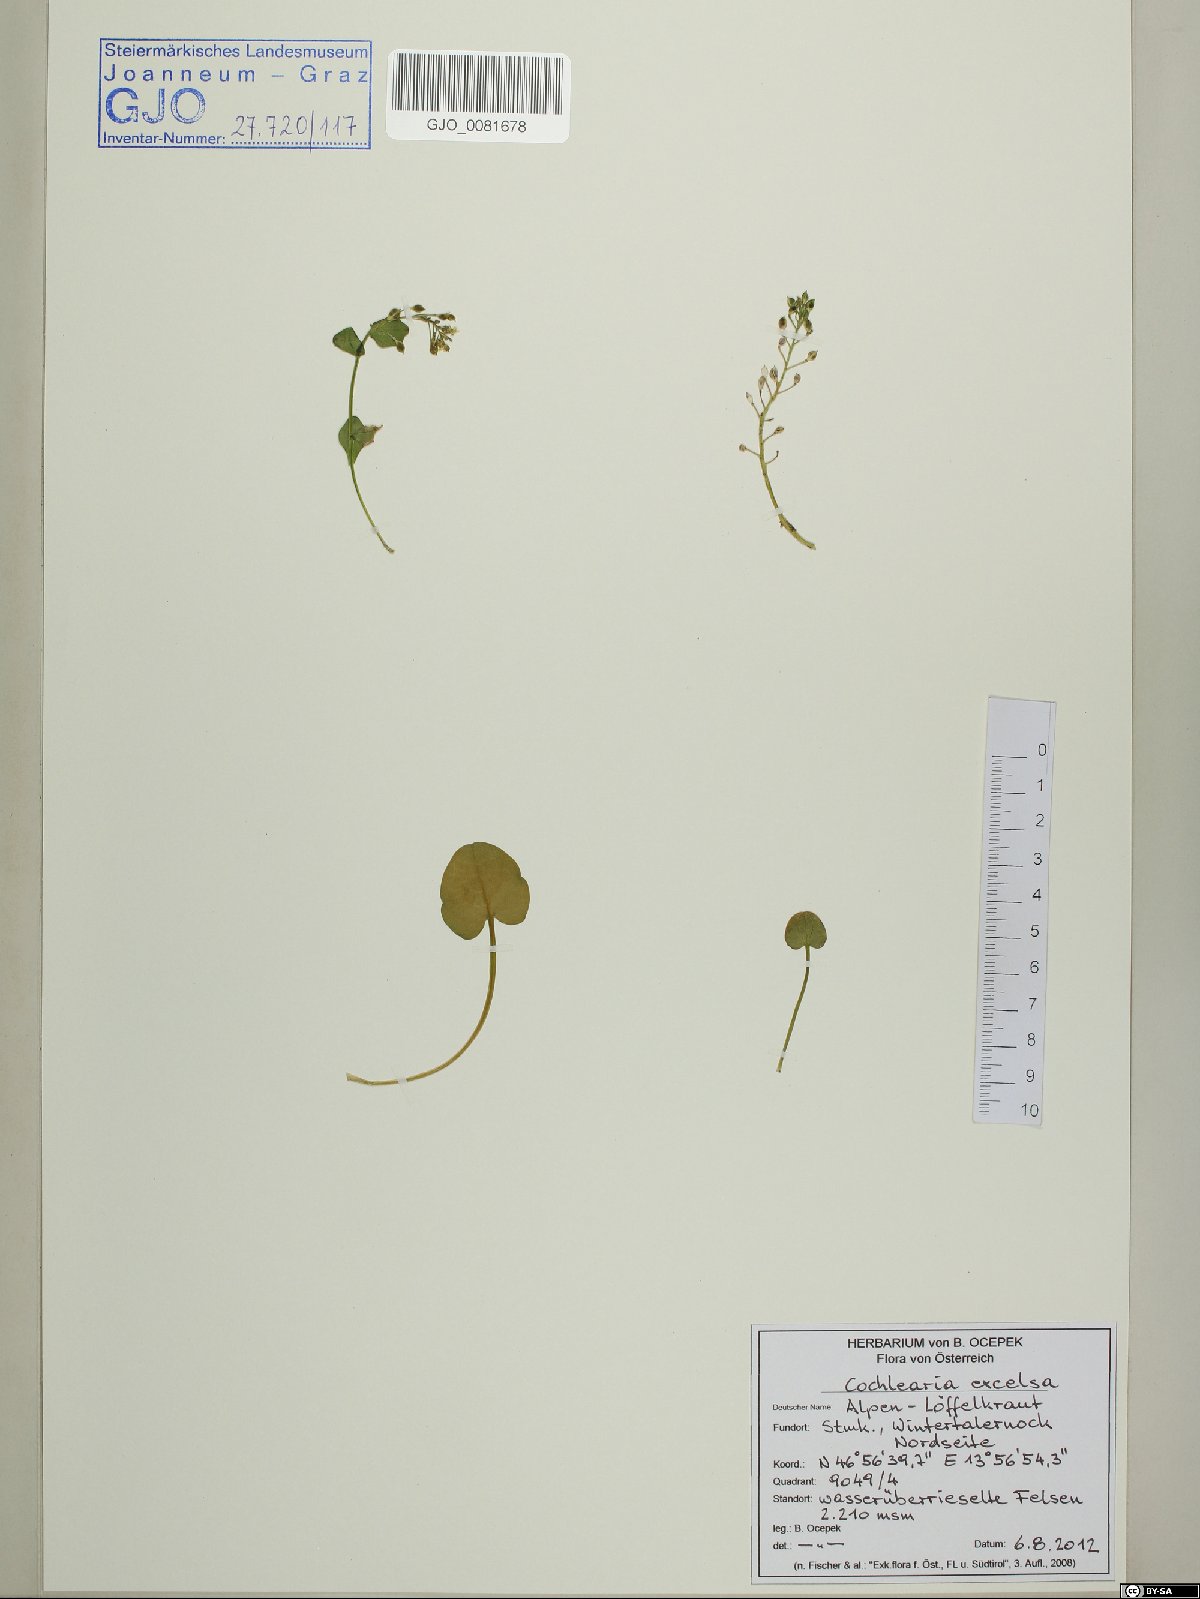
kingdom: Plantae
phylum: Tracheophyta
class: Magnoliopsida
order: Brassicales
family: Brassicaceae
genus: Cochlearia
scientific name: Cochlearia pyrenaica
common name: Upland scurvy-grass
